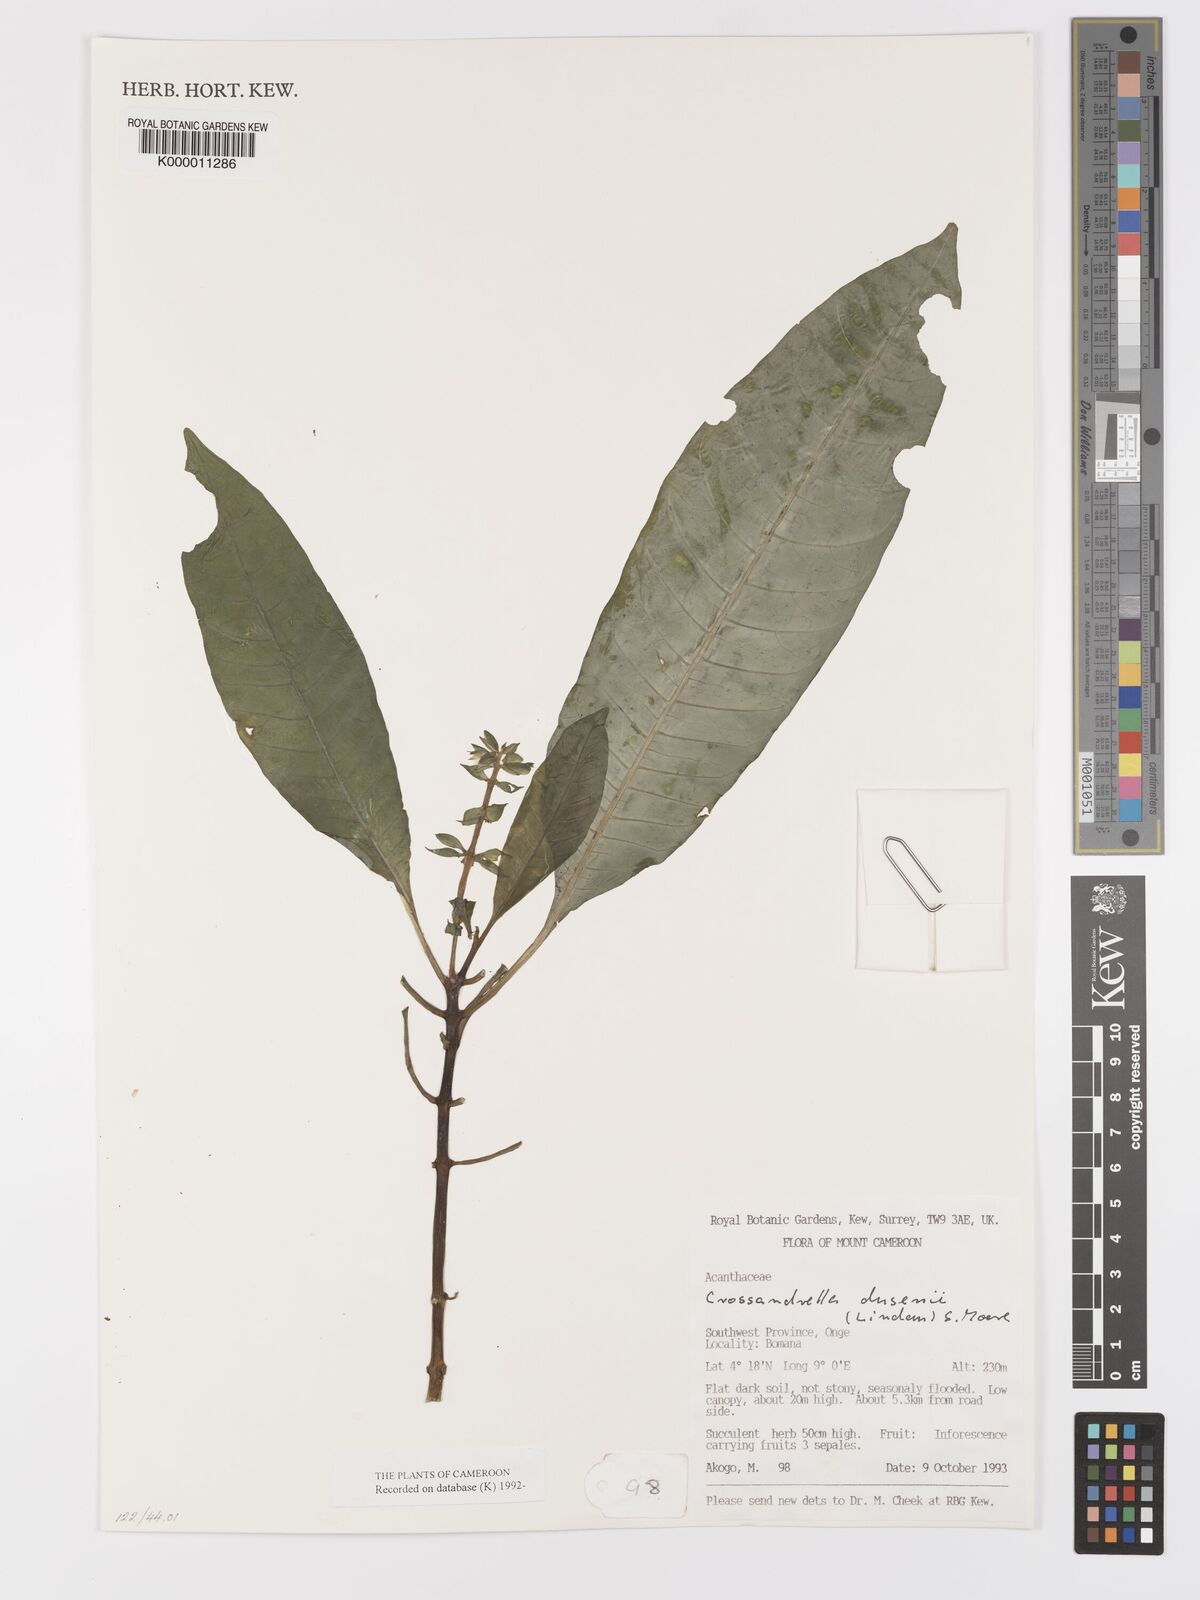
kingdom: Plantae
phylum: Tracheophyta
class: Magnoliopsida
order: Lamiales
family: Acanthaceae
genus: Crossandrella
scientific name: Crossandrella dusenii
